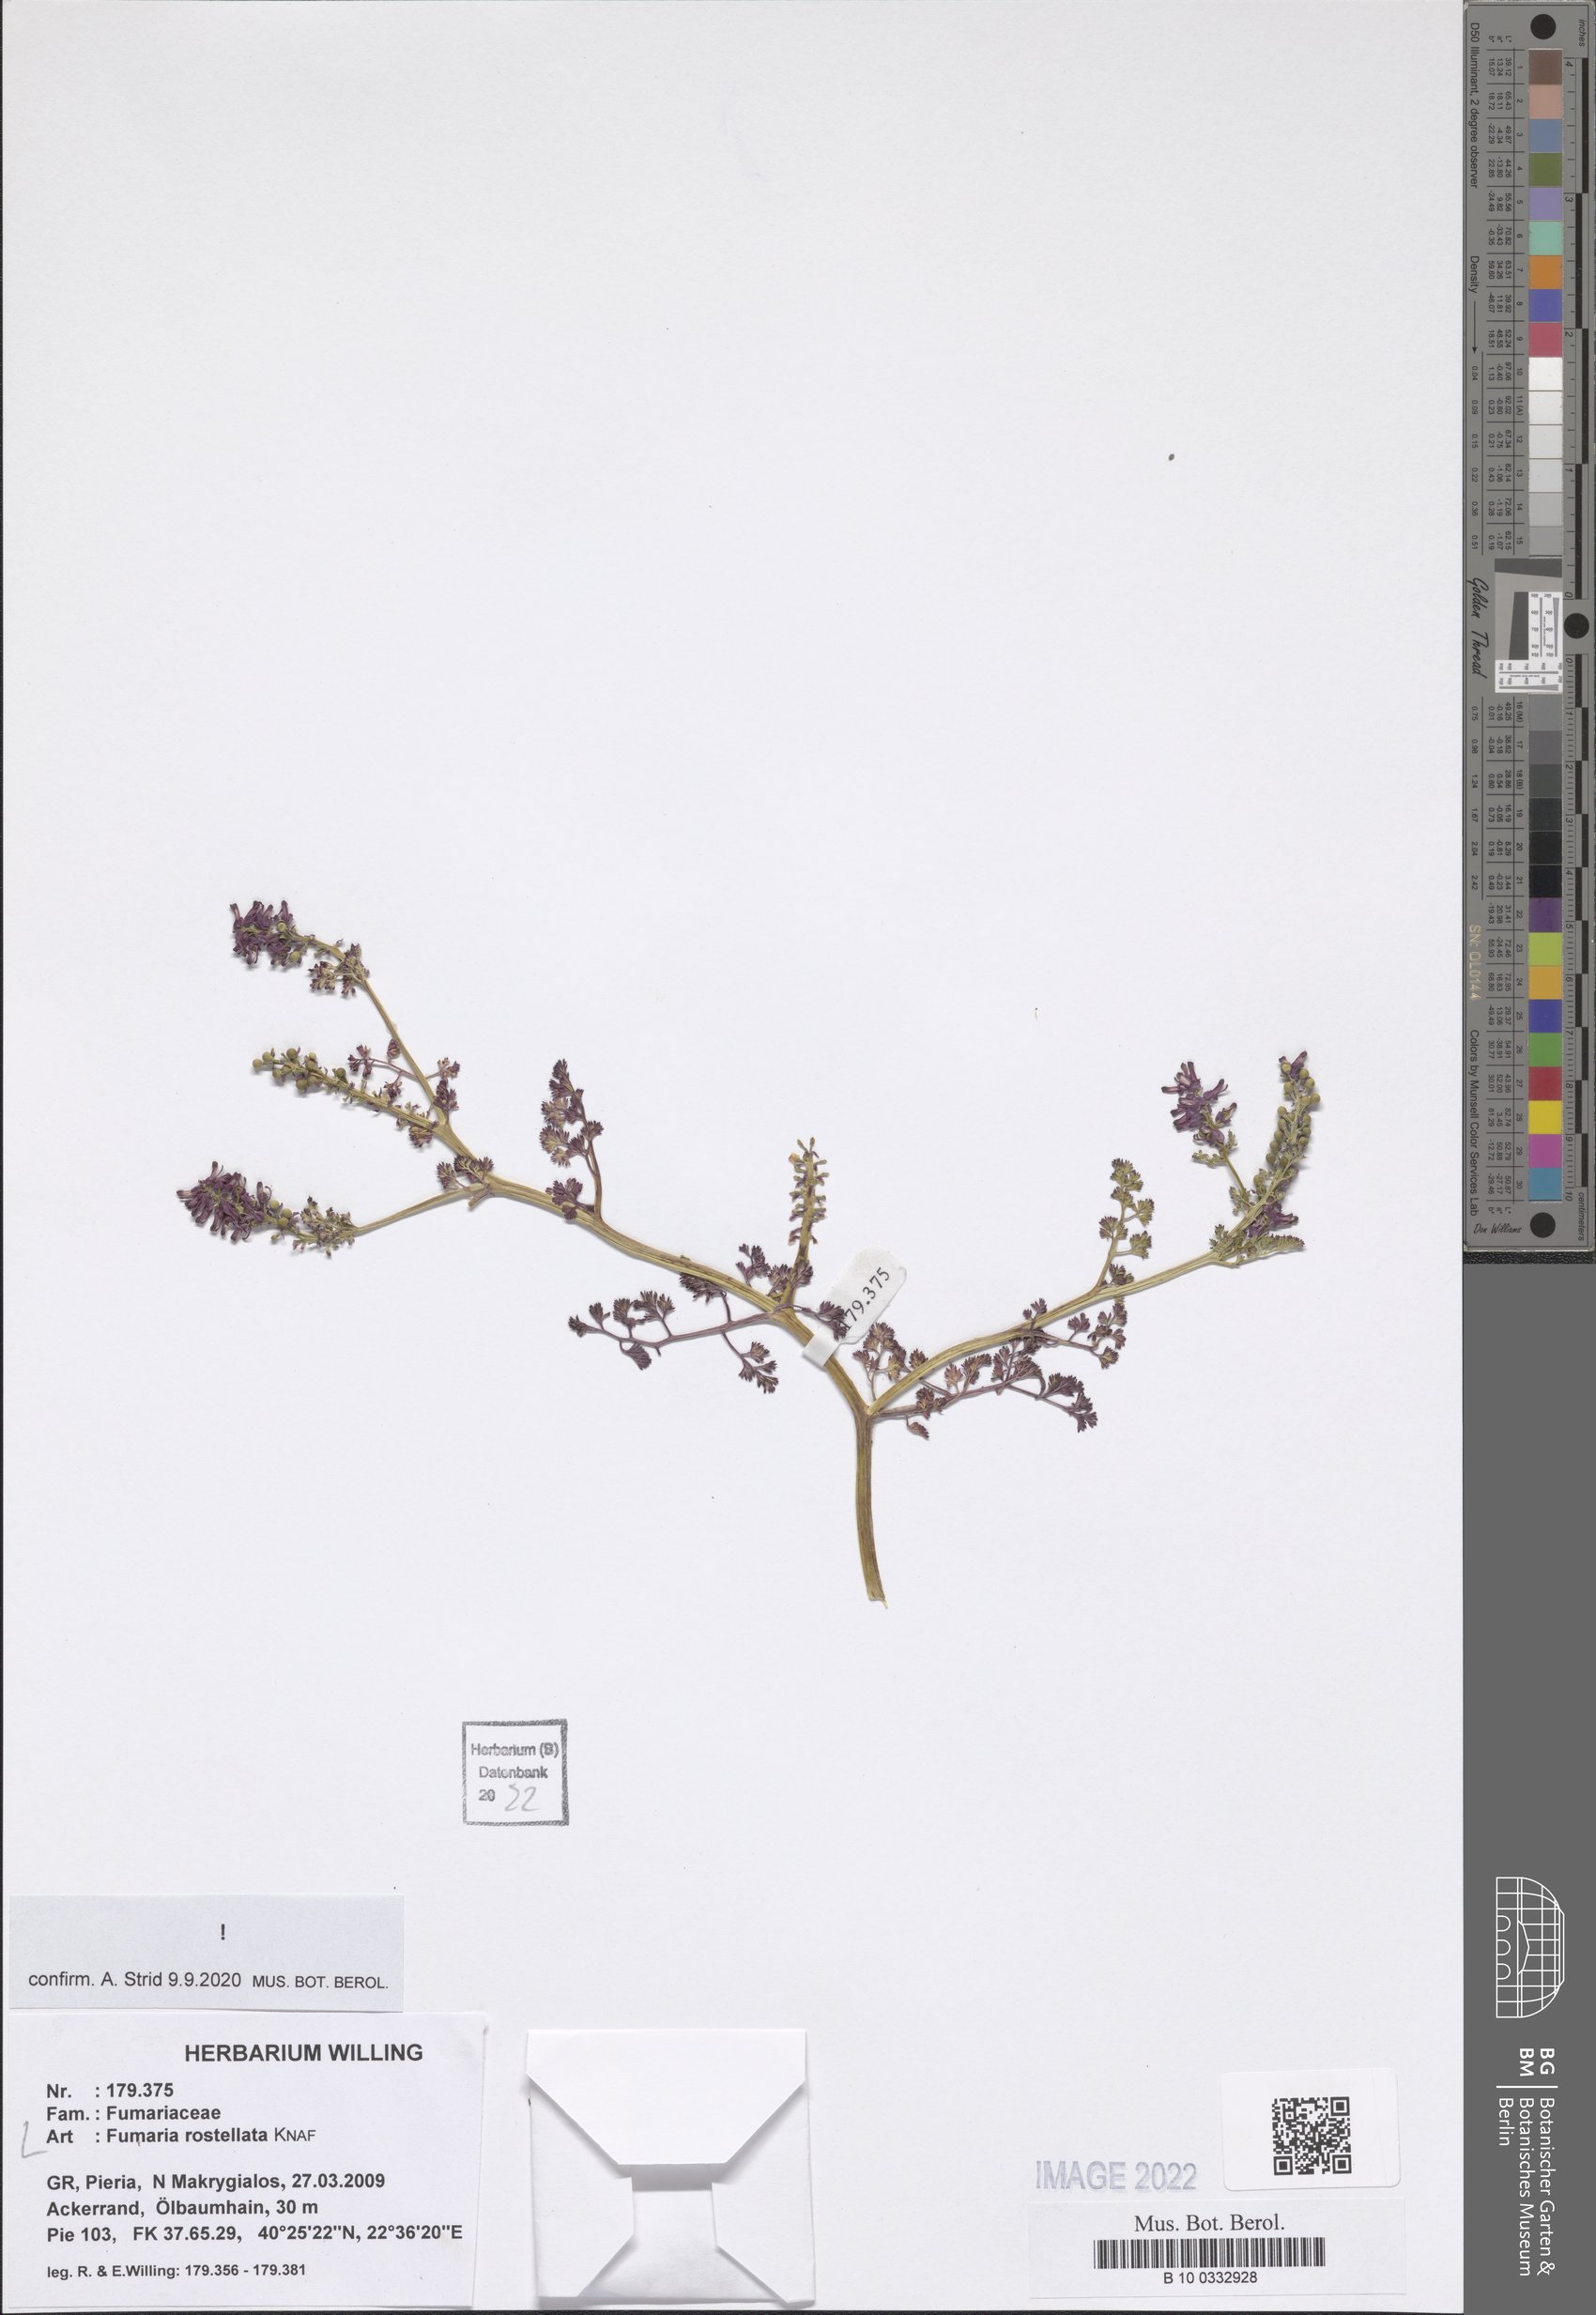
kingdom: Plantae
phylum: Tracheophyta
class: Magnoliopsida
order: Ranunculales
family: Papaveraceae
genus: Fumaria
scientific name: Fumaria rostellata
